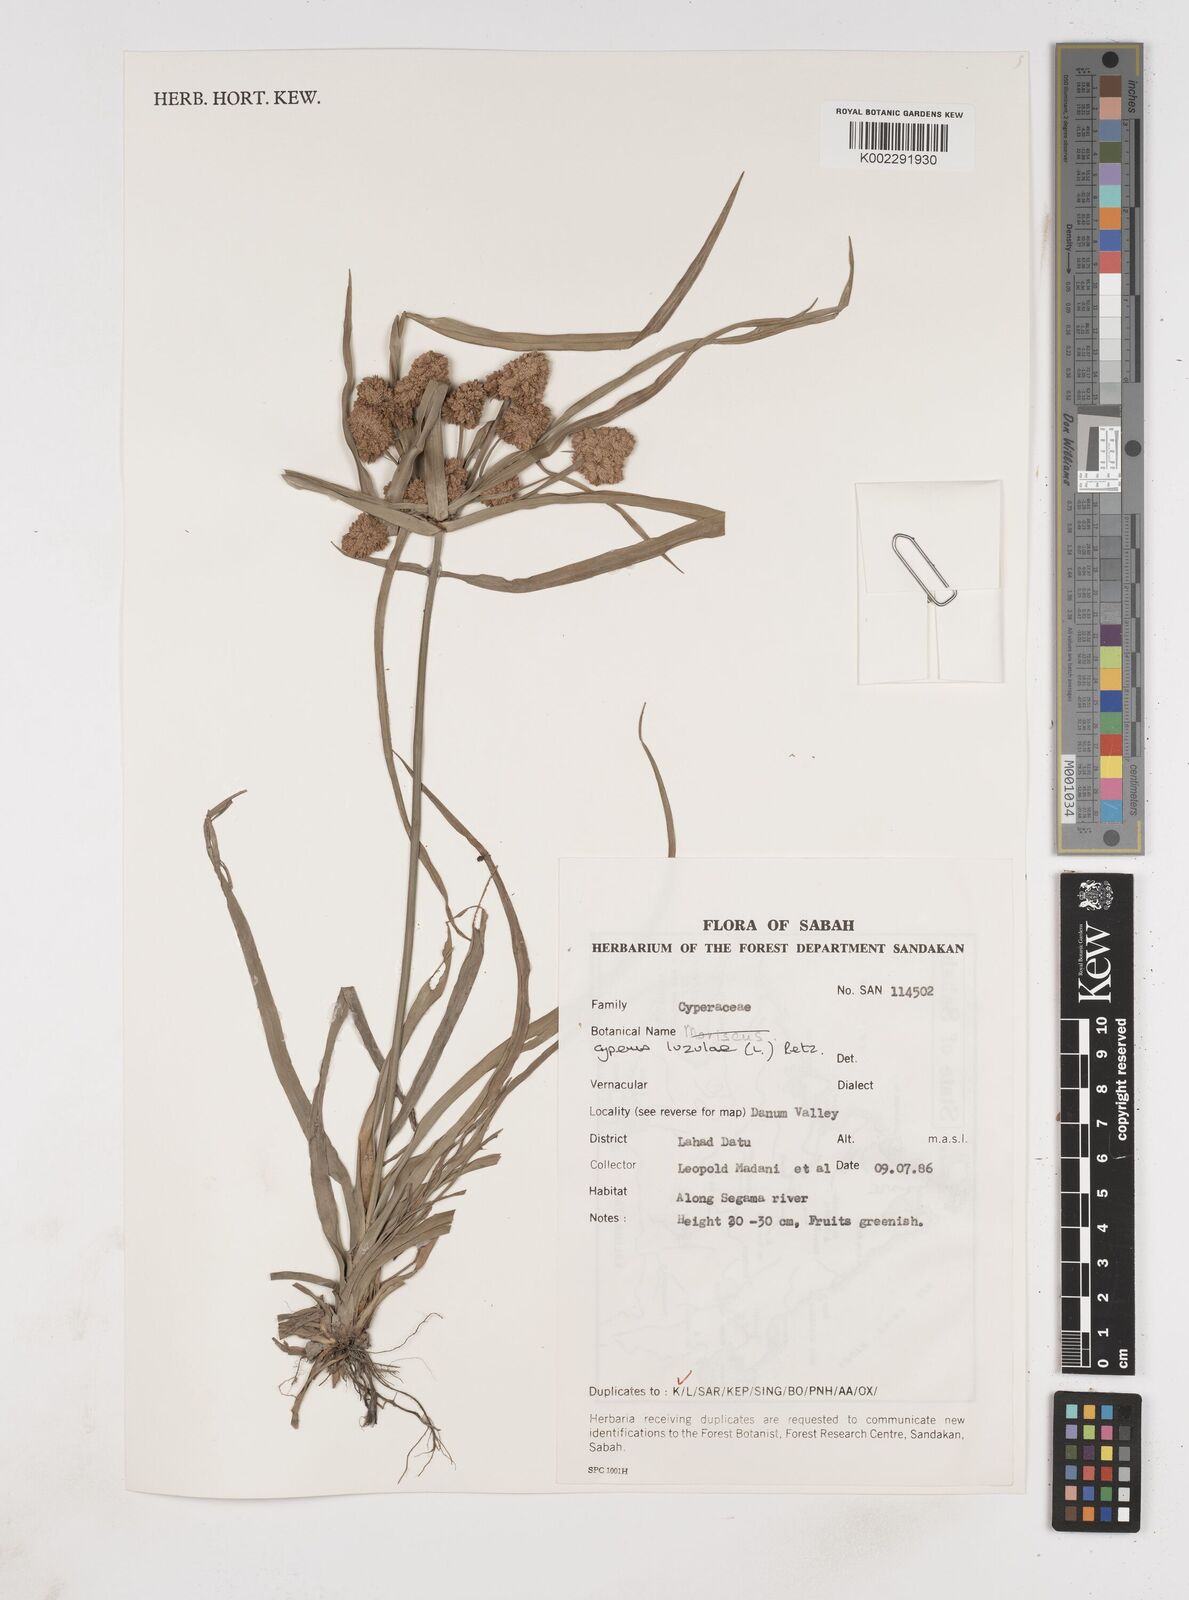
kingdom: Plantae
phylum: Tracheophyta
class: Liliopsida
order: Poales
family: Cyperaceae
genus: Cyperus
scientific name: Cyperus luzulae
